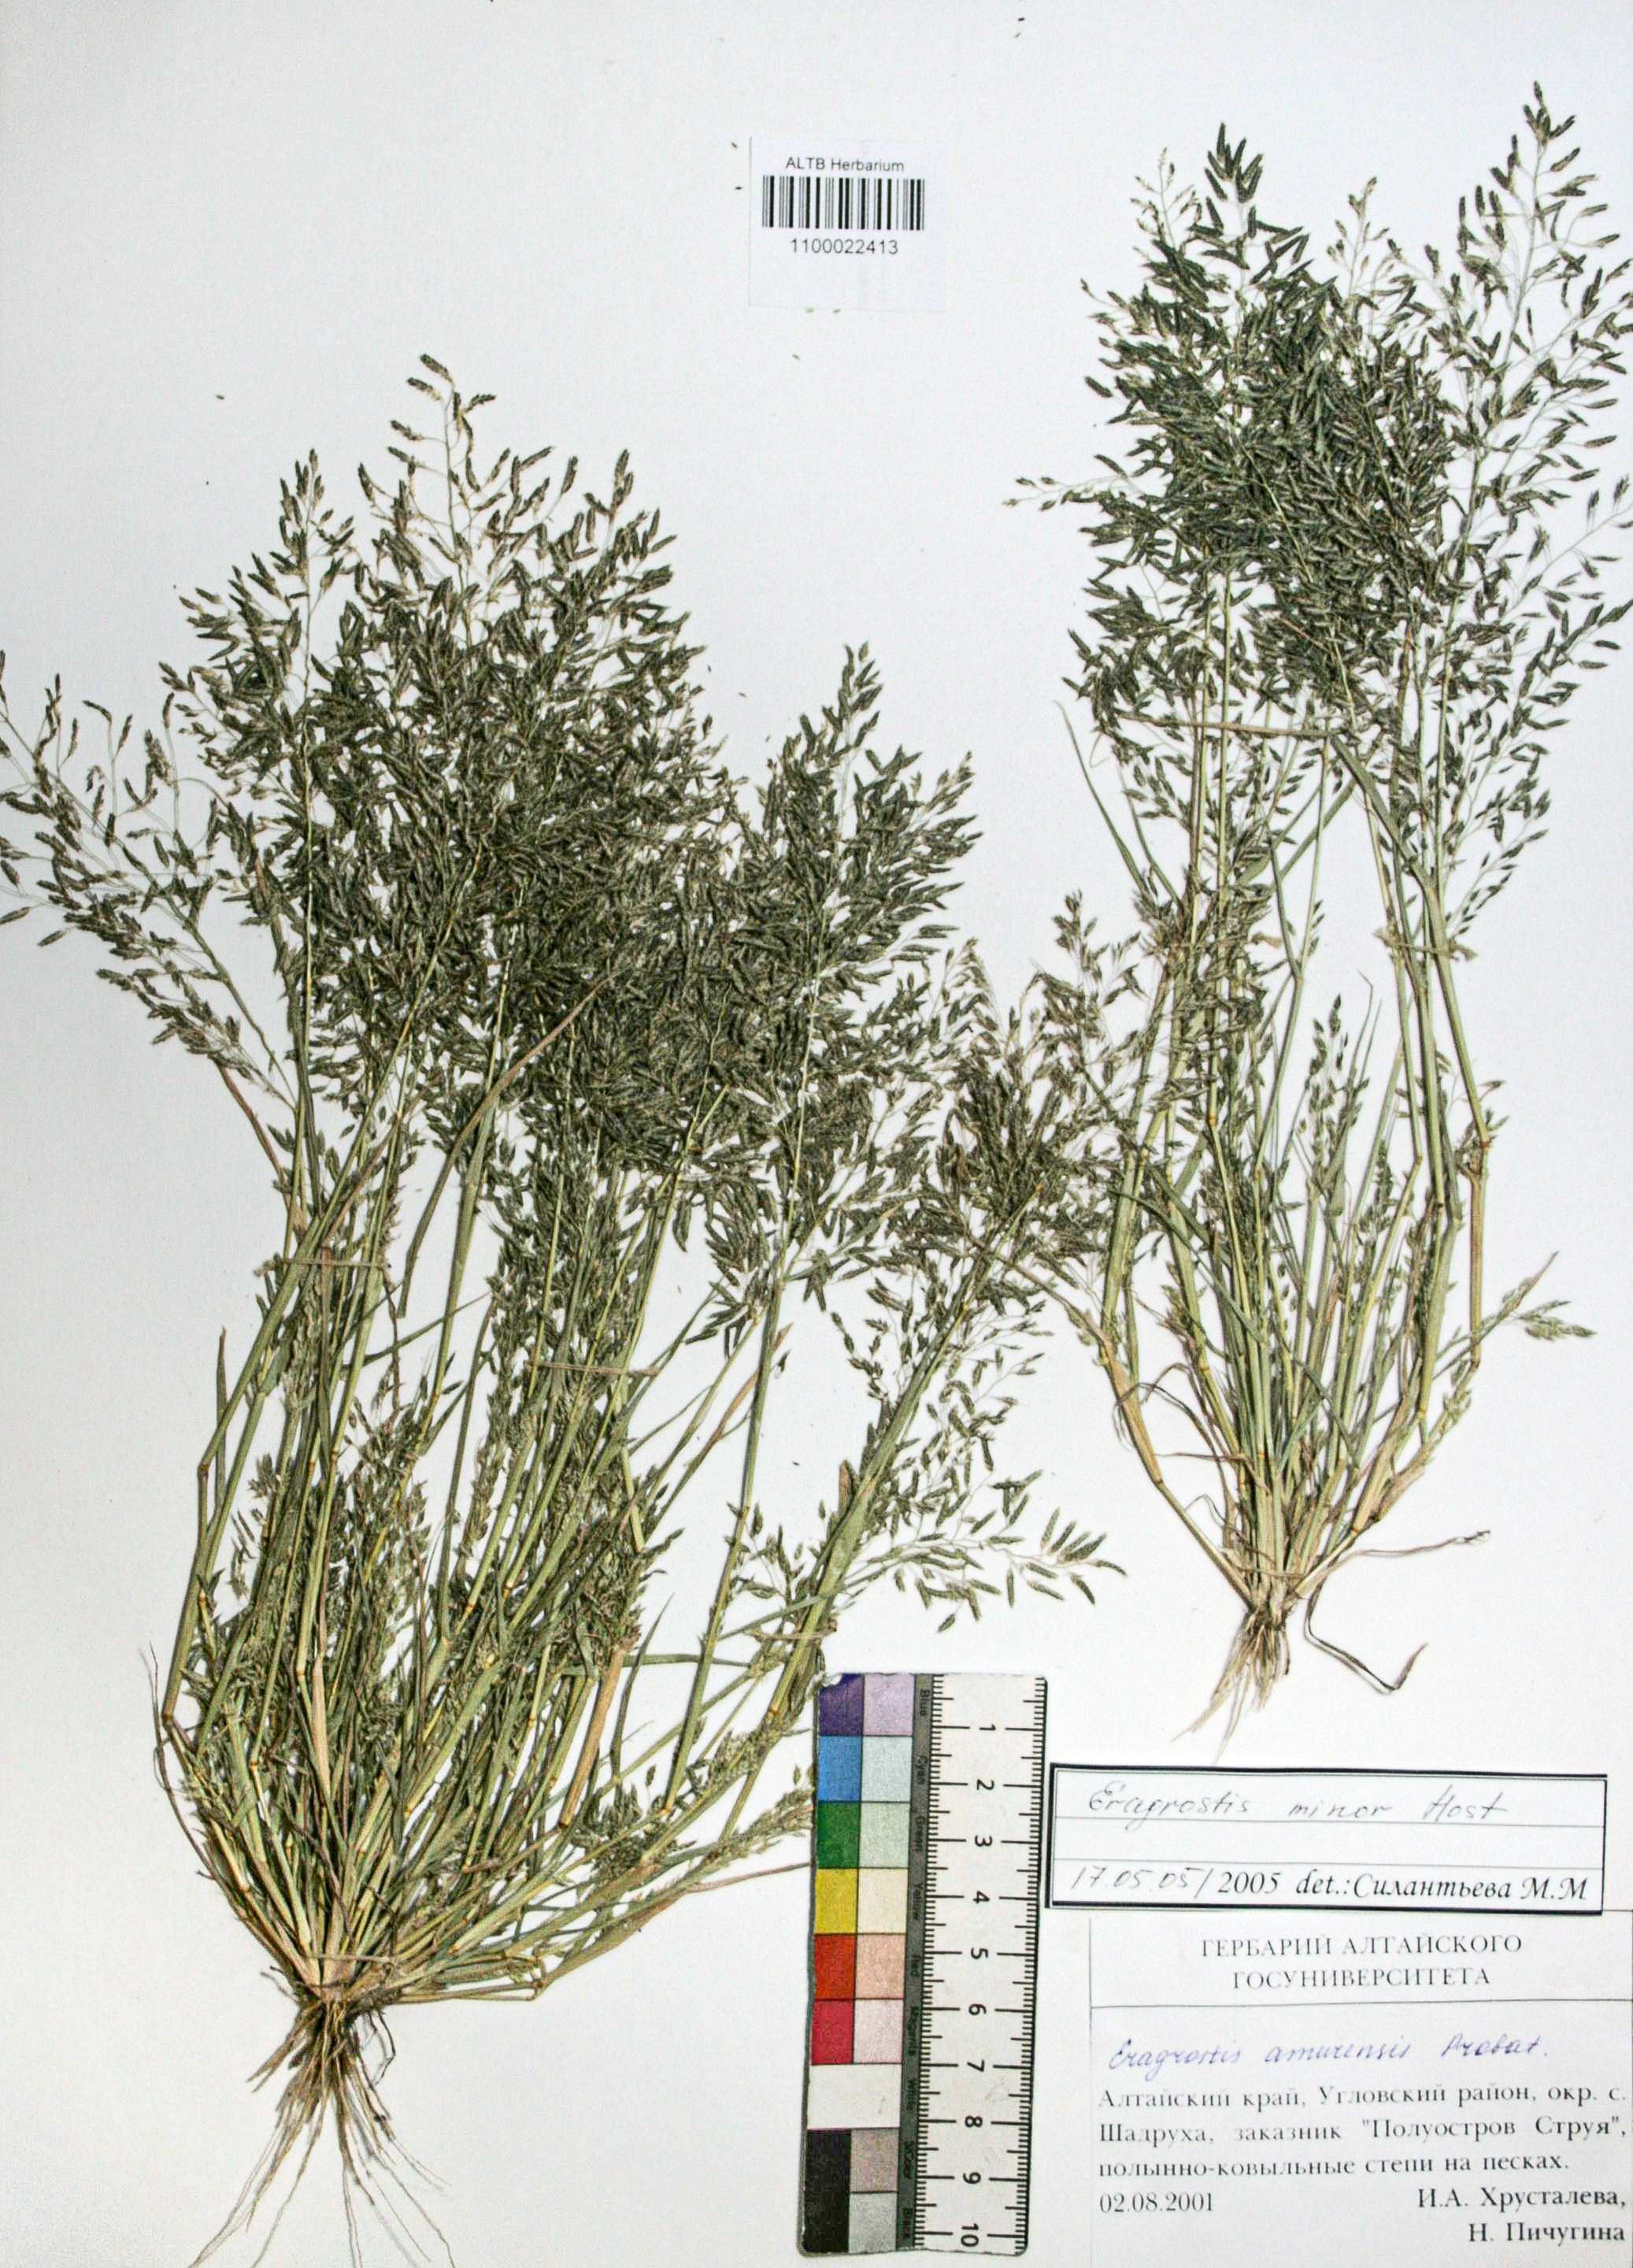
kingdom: Plantae
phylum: Tracheophyta
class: Liliopsida
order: Poales
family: Poaceae
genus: Eragrostis
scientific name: Eragrostis minor
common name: Small love-grass
